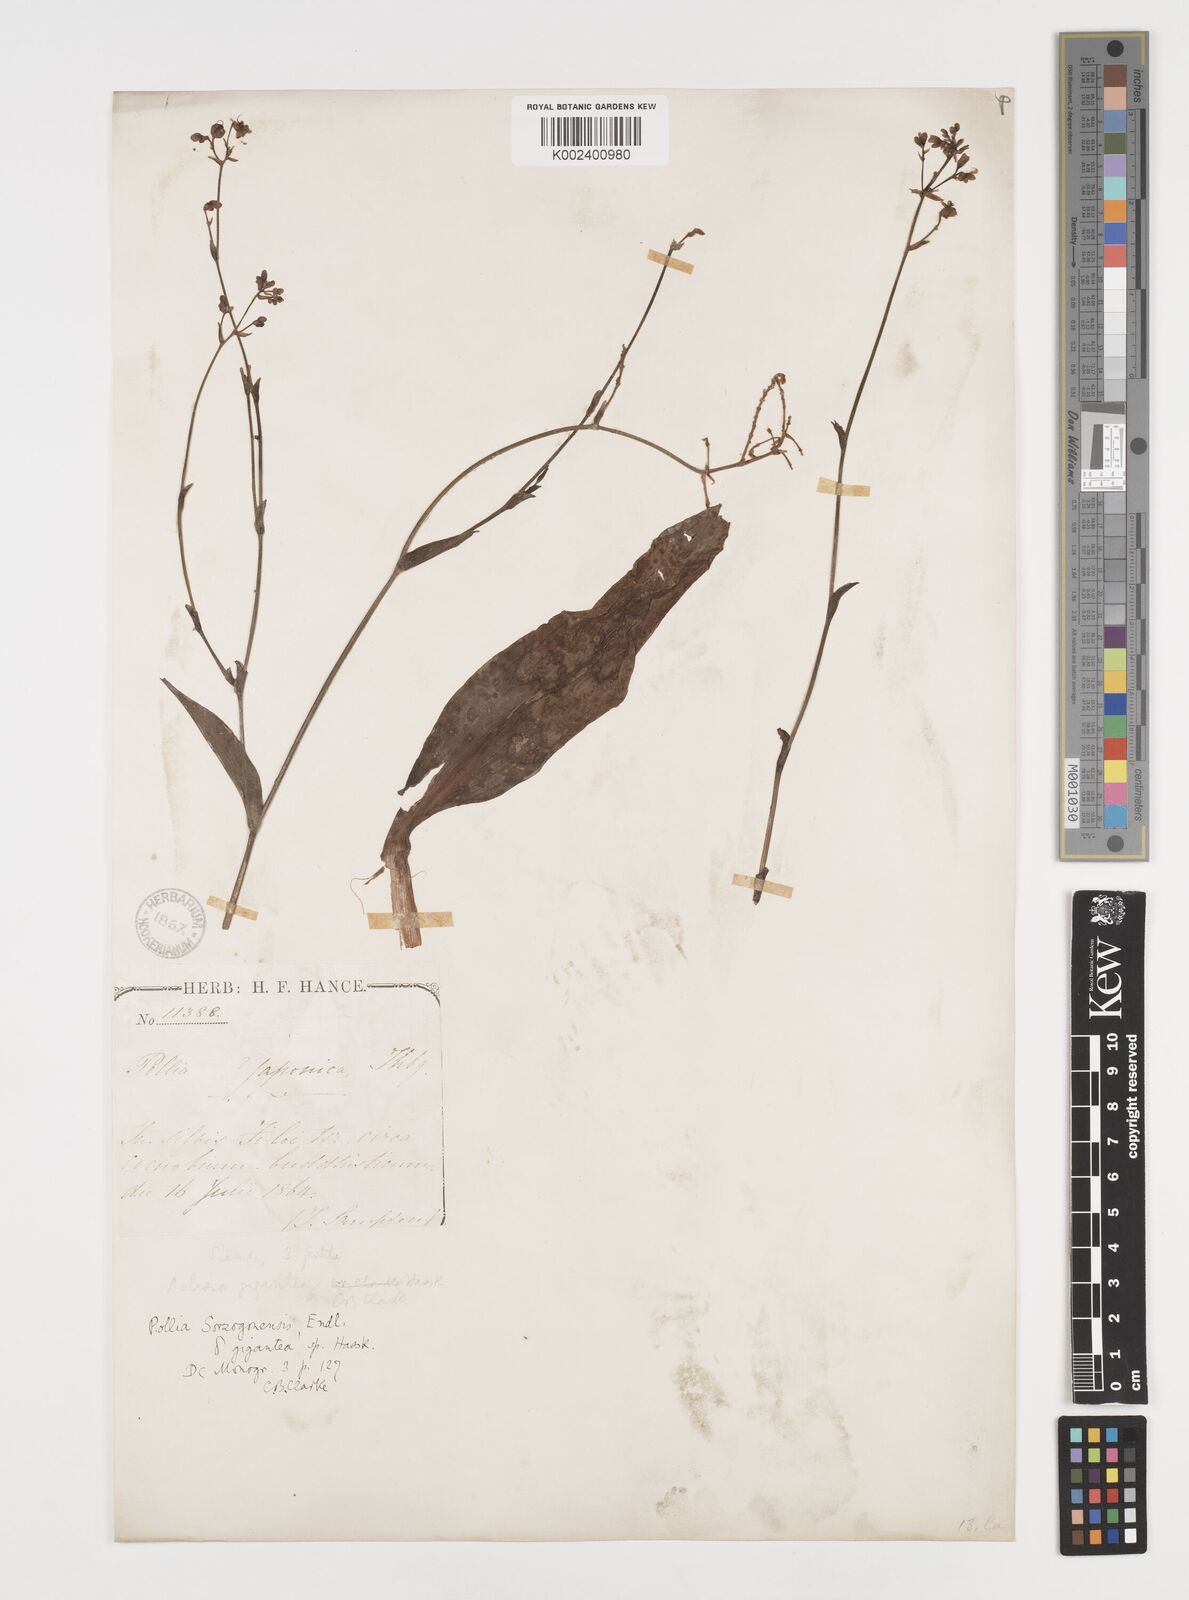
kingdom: Plantae
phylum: Tracheophyta
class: Liliopsida
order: Commelinales
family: Commelinaceae
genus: Pollia
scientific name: Pollia secundiflora
